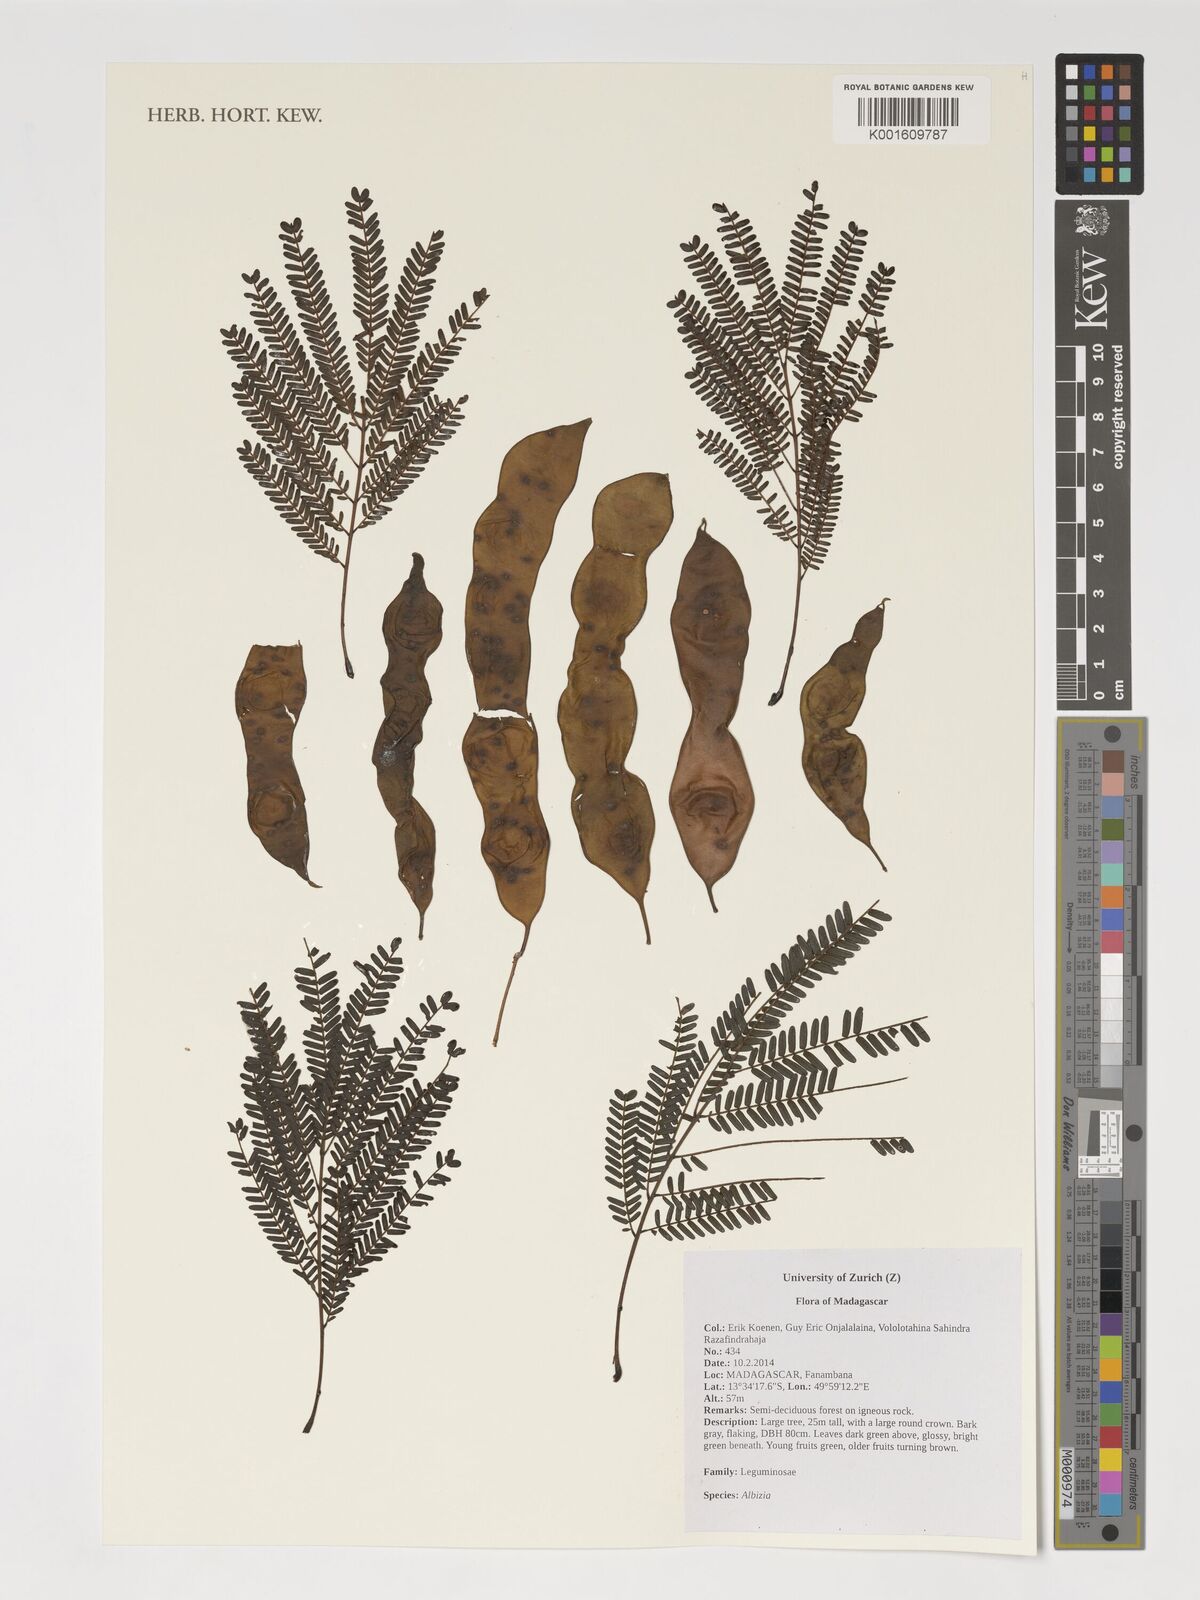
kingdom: Plantae
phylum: Tracheophyta
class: Magnoliopsida
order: Fabales
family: Fabaceae
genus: Albizia
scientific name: Albizia
